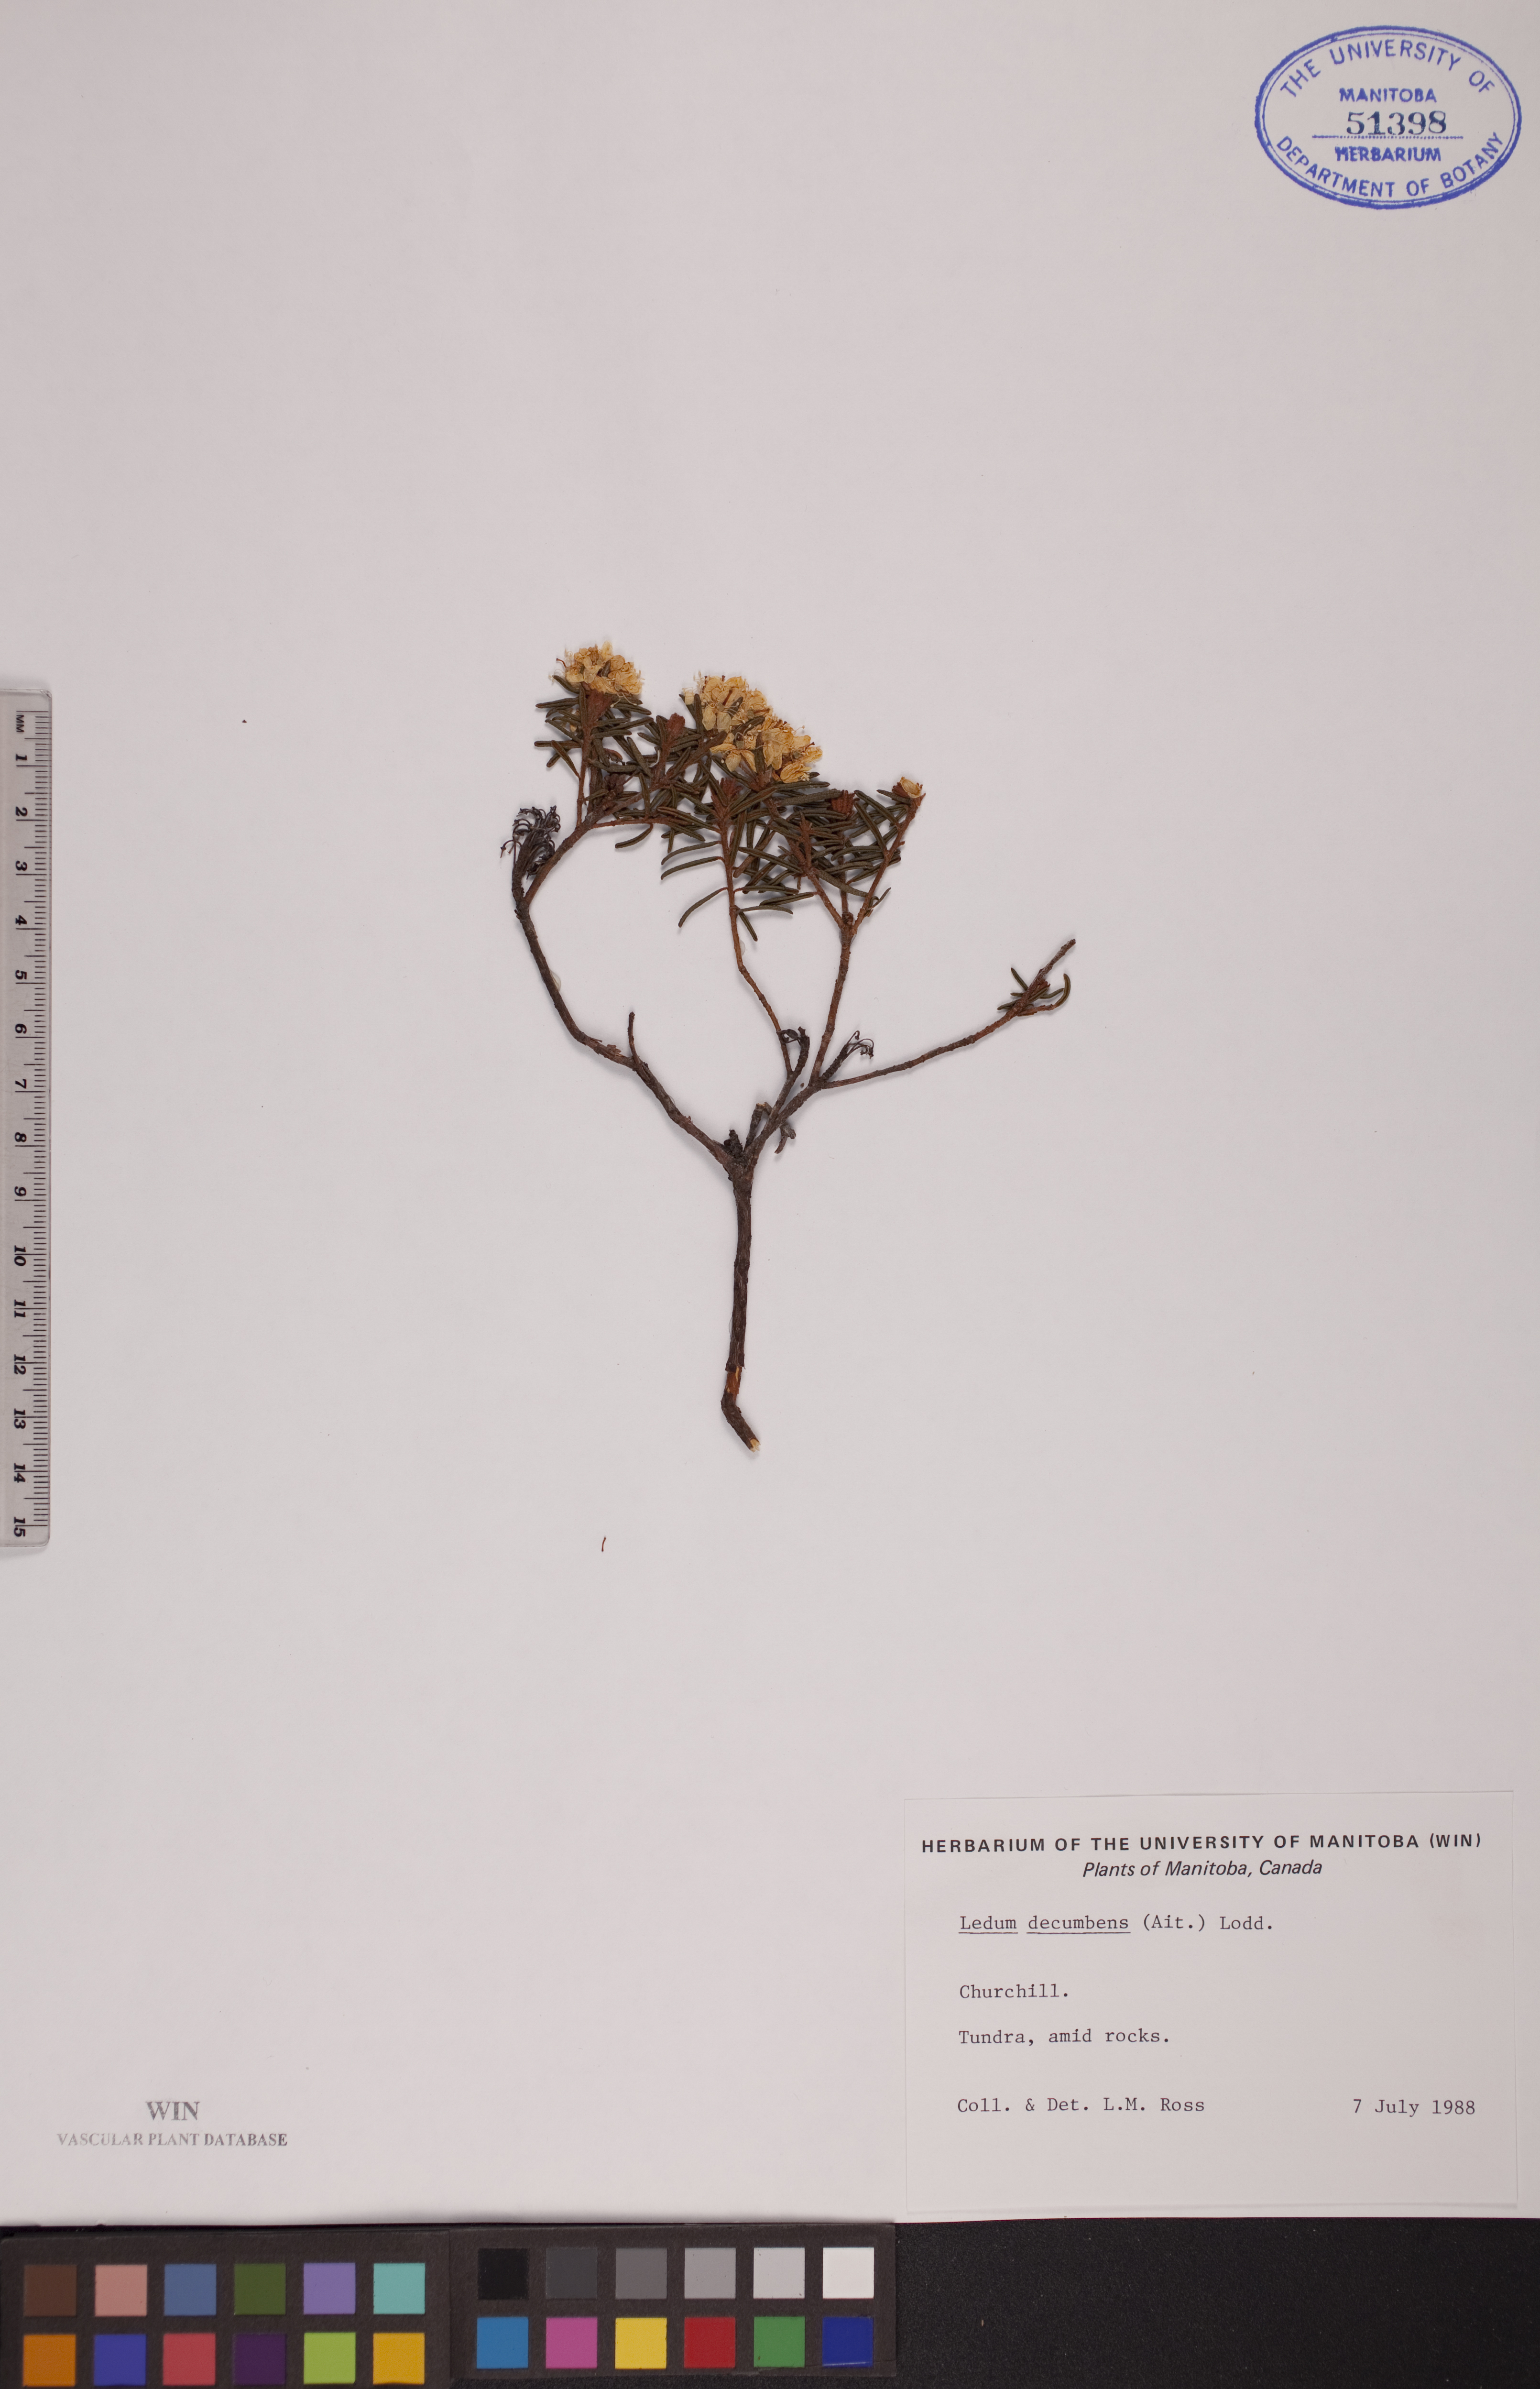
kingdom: Plantae
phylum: Tracheophyta
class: Magnoliopsida
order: Ericales
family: Ericaceae
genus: Rhododendron
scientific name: Rhododendron tomentosum
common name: Marsh labrador tea
